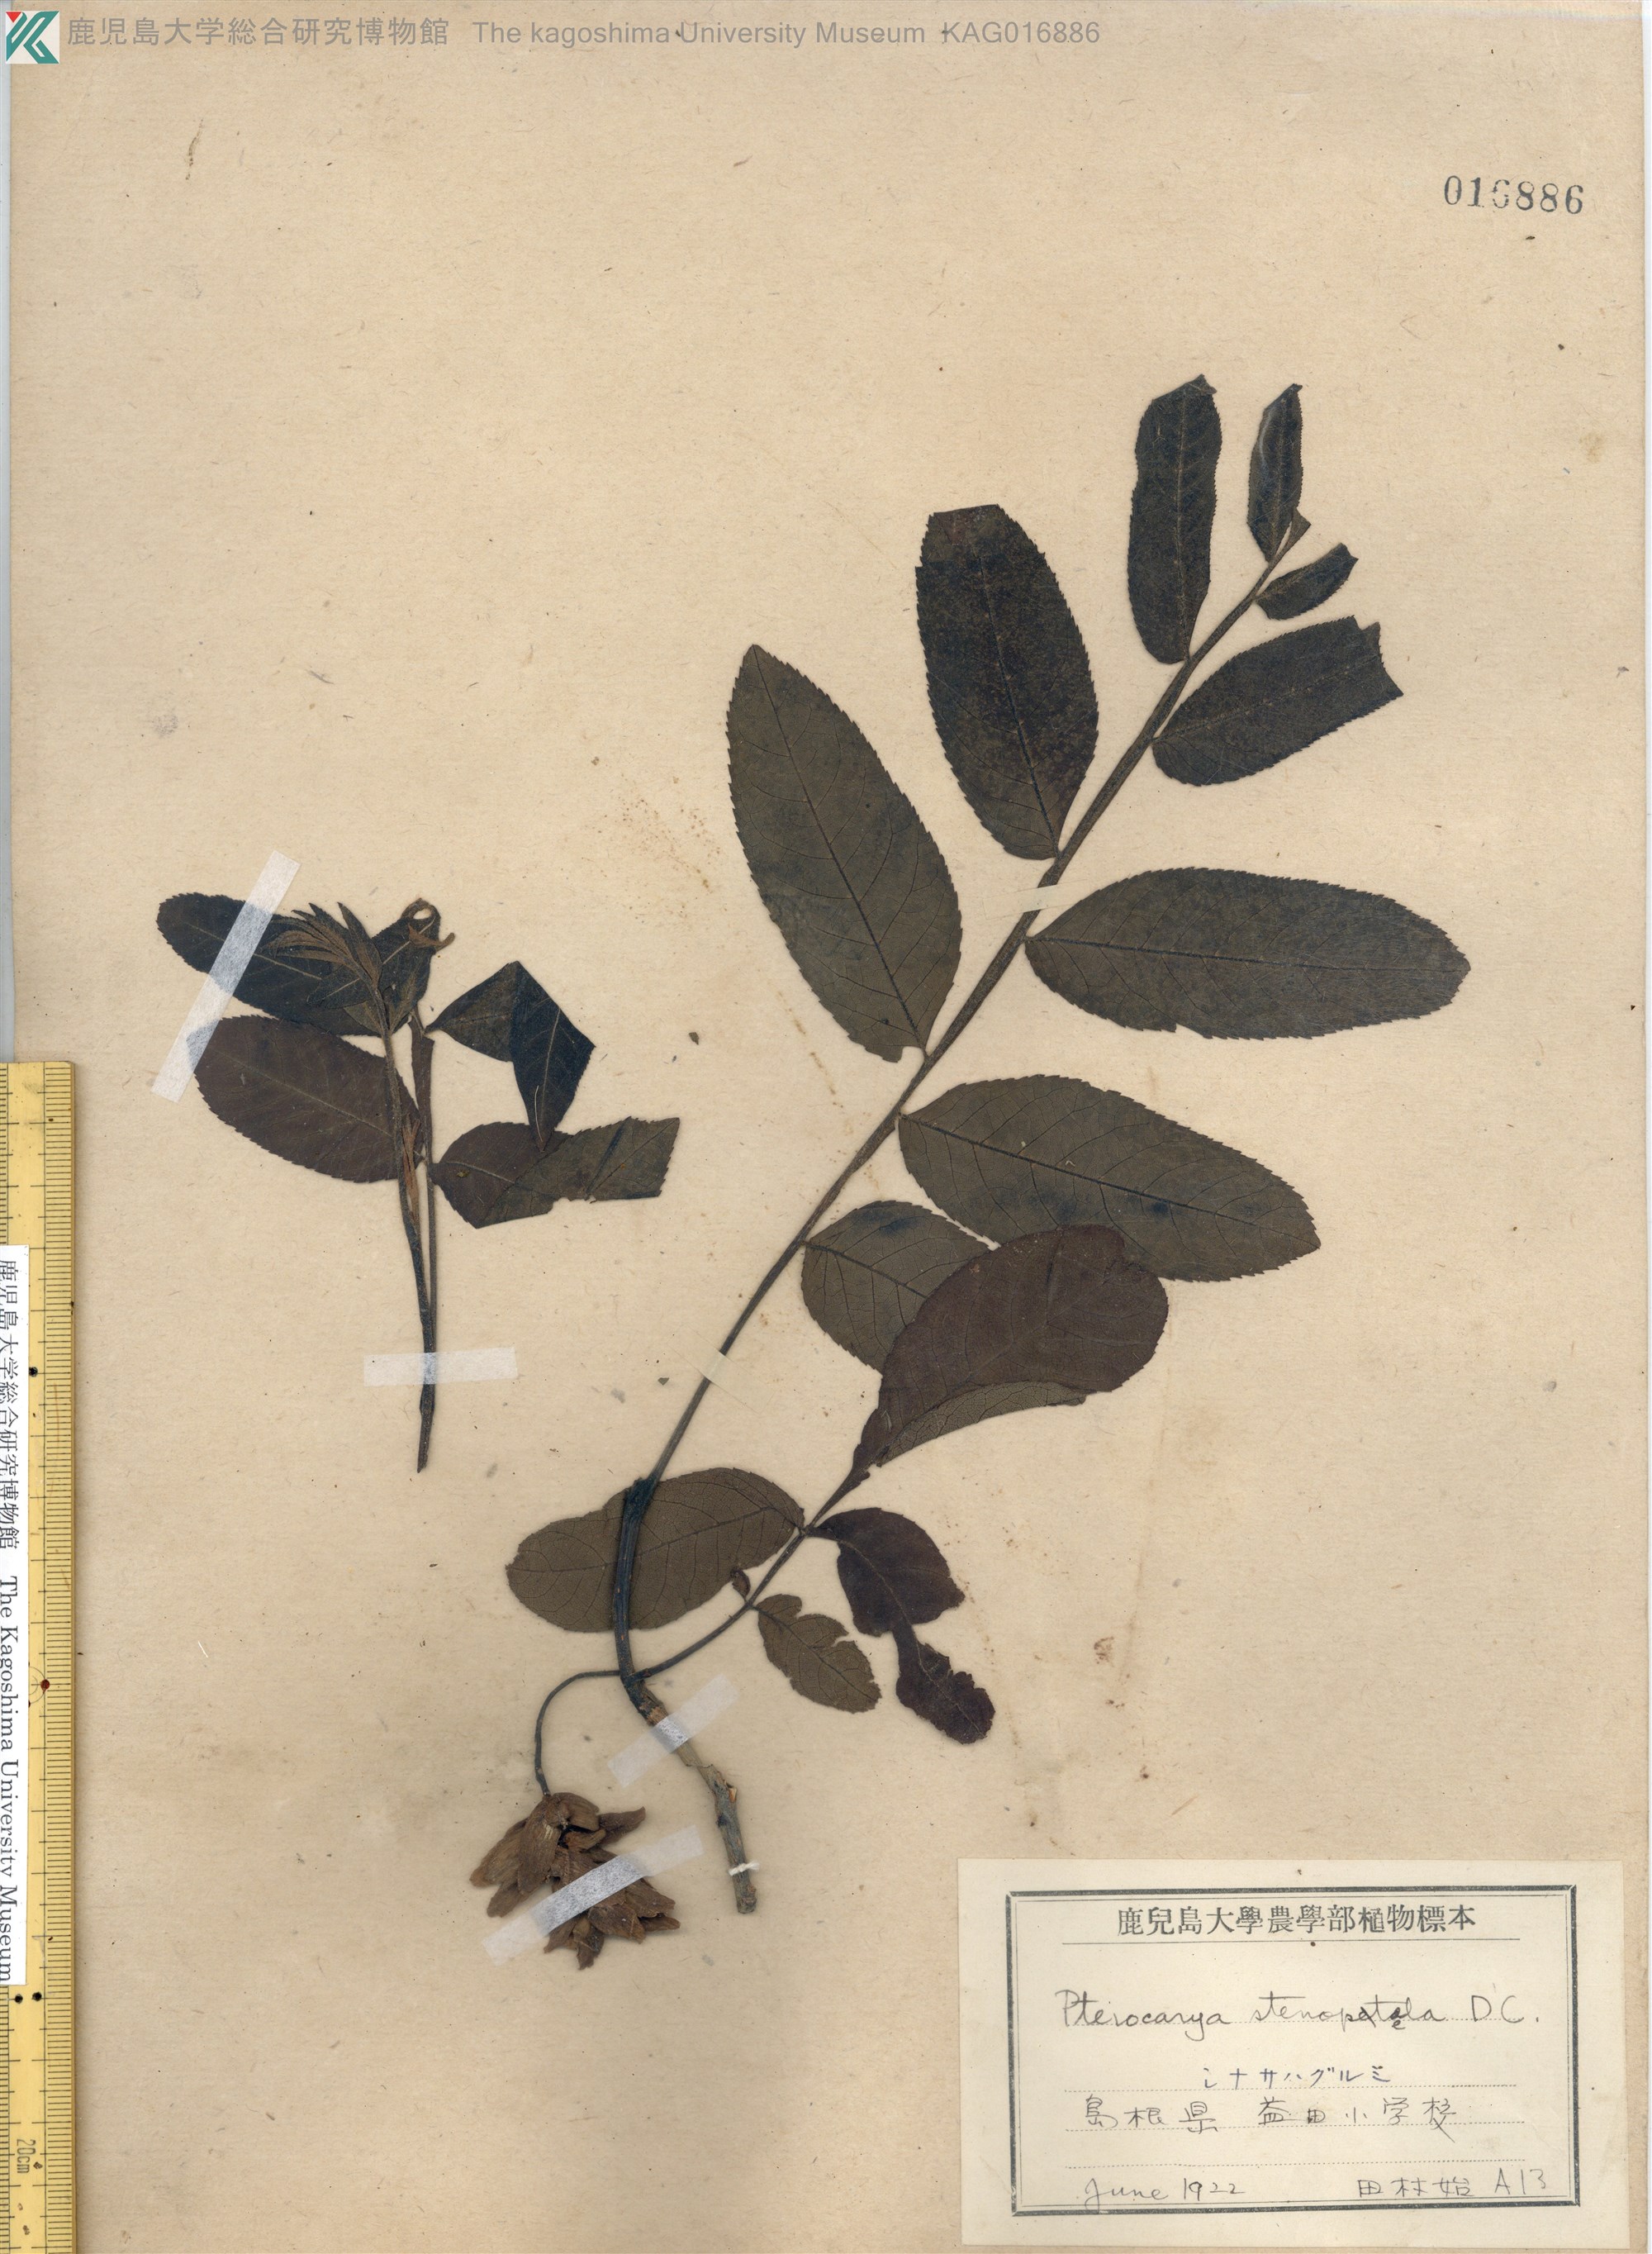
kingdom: Plantae
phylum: Tracheophyta
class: Magnoliopsida
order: Fagales
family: Juglandaceae
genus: Pterocarya
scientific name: Pterocarya stenoptera
